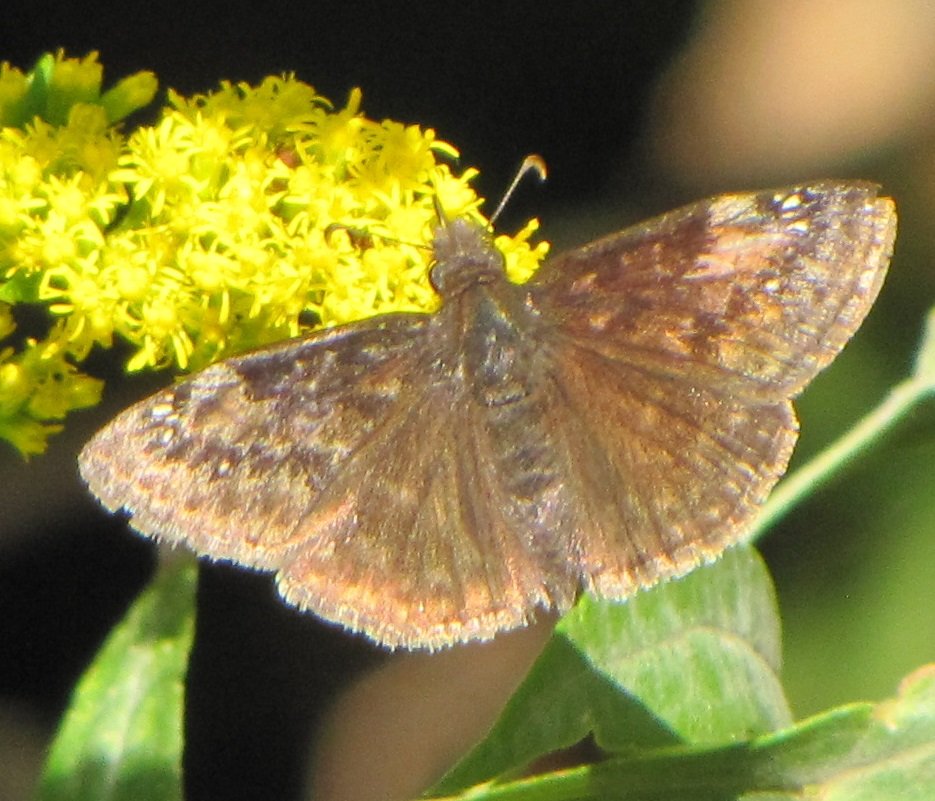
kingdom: Animalia
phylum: Arthropoda
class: Insecta
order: Lepidoptera
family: Hesperiidae
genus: Gesta
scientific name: Gesta
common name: Wild Indigo Duskywing
